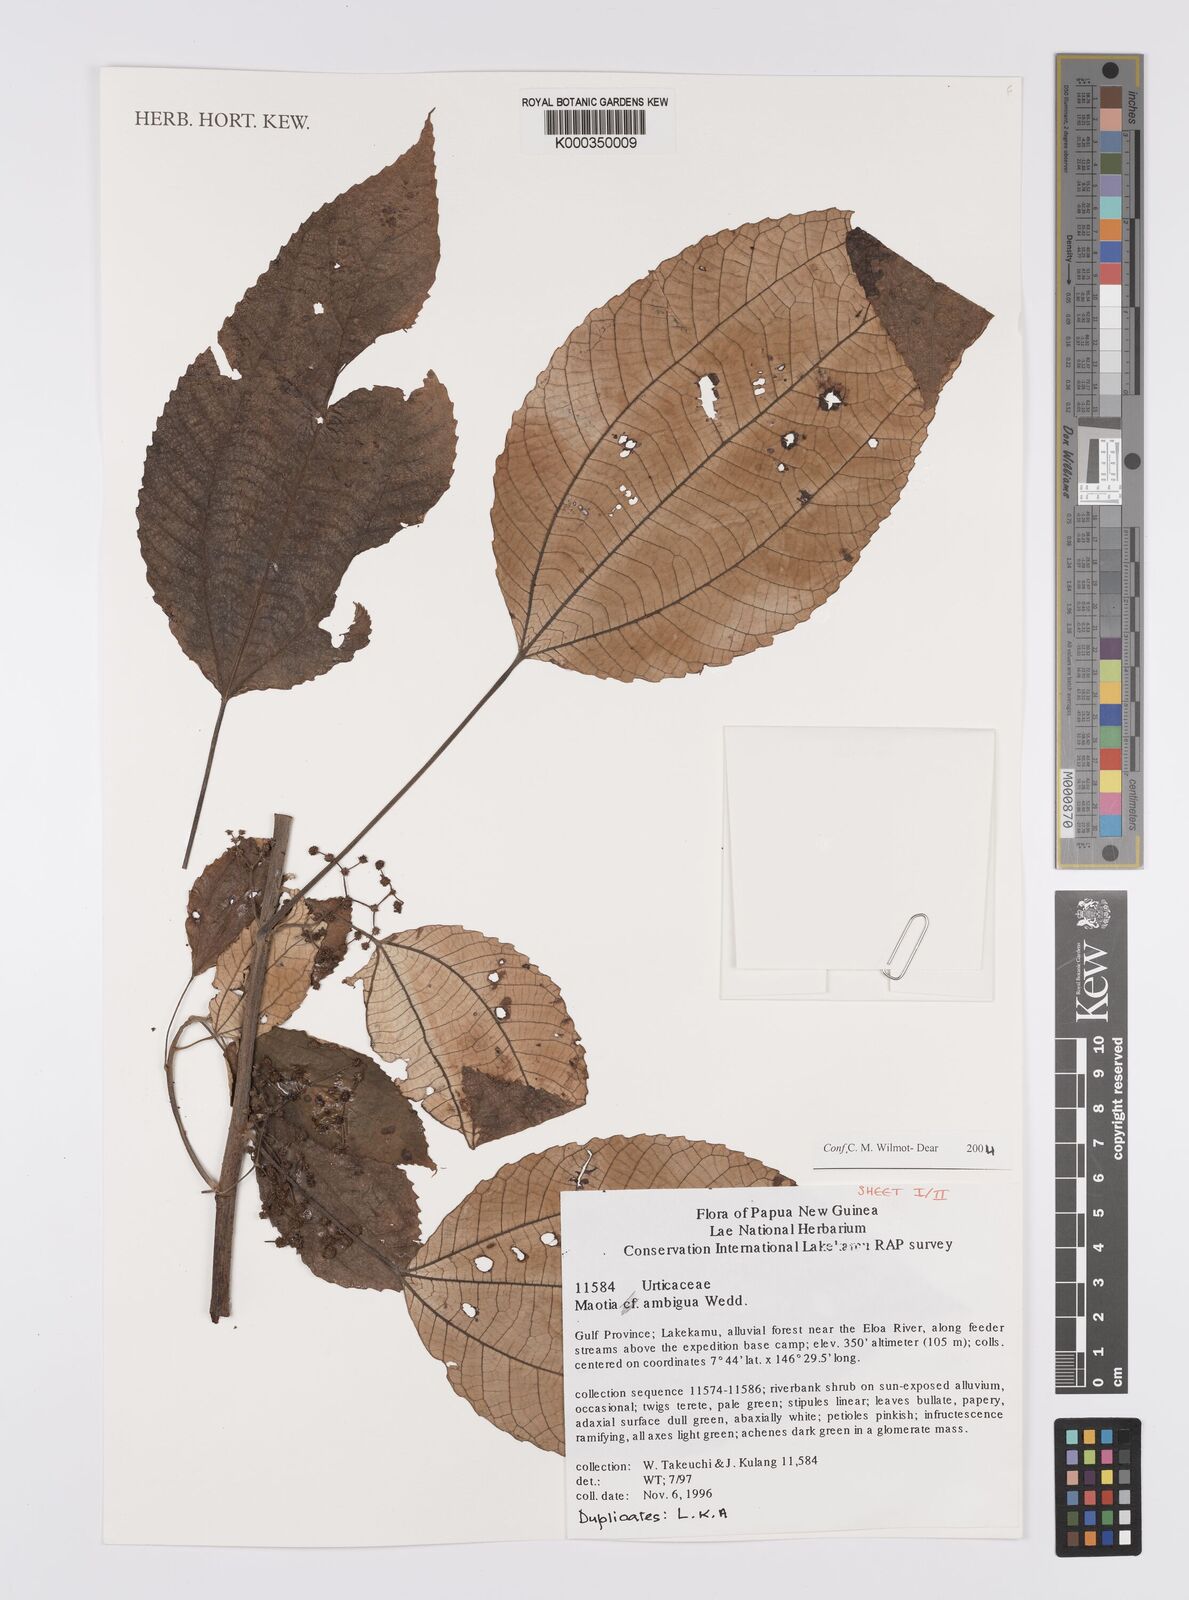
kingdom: Plantae
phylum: Tracheophyta
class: Magnoliopsida
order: Rosales
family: Urticaceae
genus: Maoutia
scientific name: Maoutia ambigua
